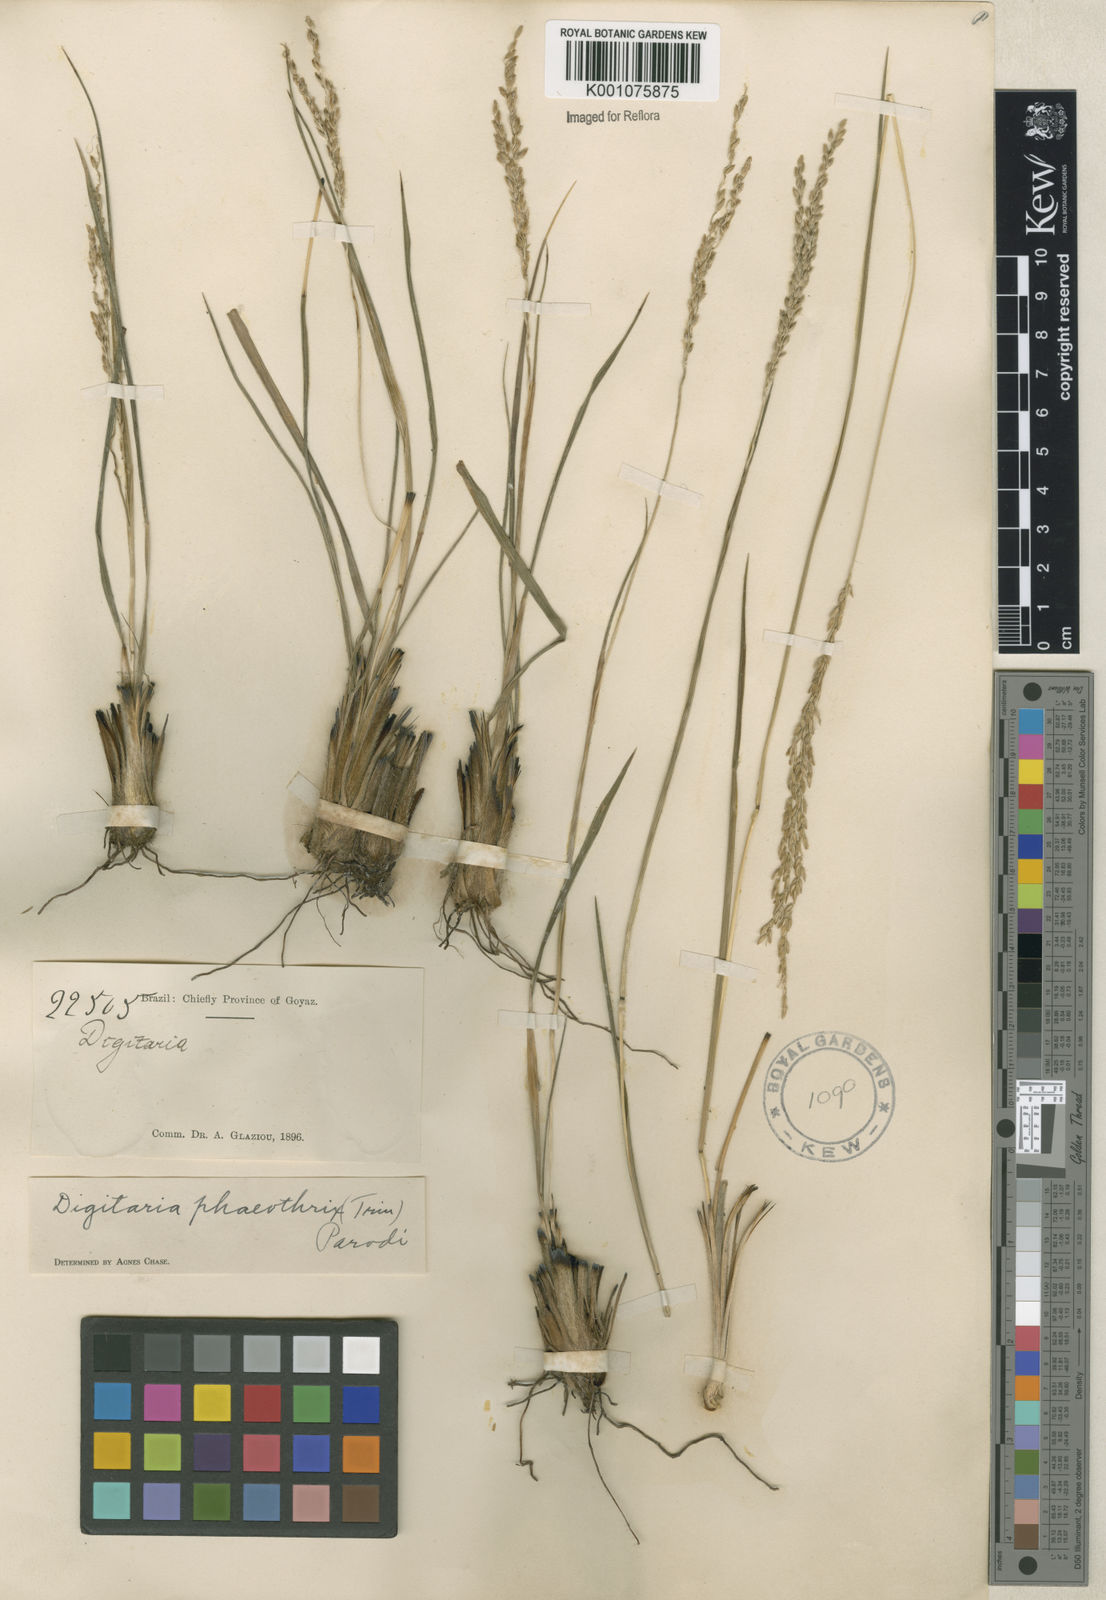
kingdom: Plantae
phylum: Tracheophyta
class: Liliopsida
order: Poales
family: Poaceae
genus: Digitaria
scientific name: Digitaria neesiana
